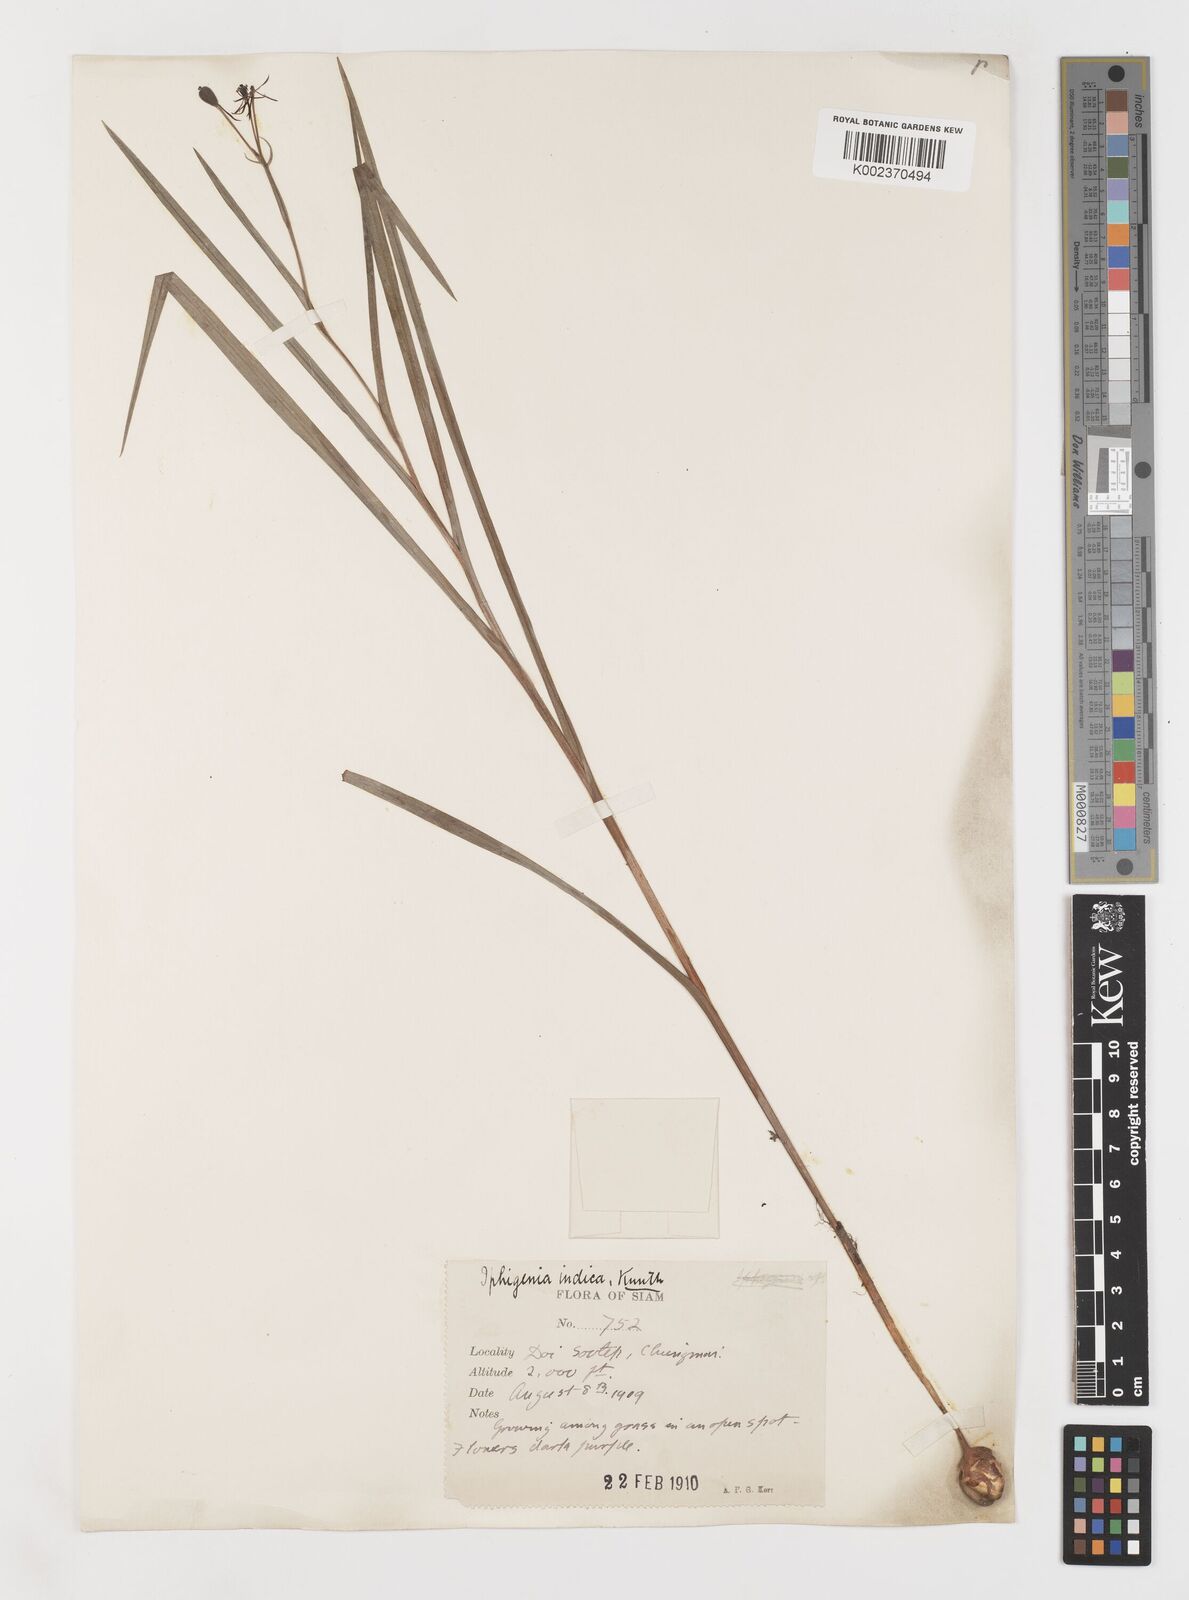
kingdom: Plantae
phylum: Tracheophyta
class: Liliopsida
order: Liliales
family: Colchicaceae
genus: Iphigenia
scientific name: Iphigenia indica
